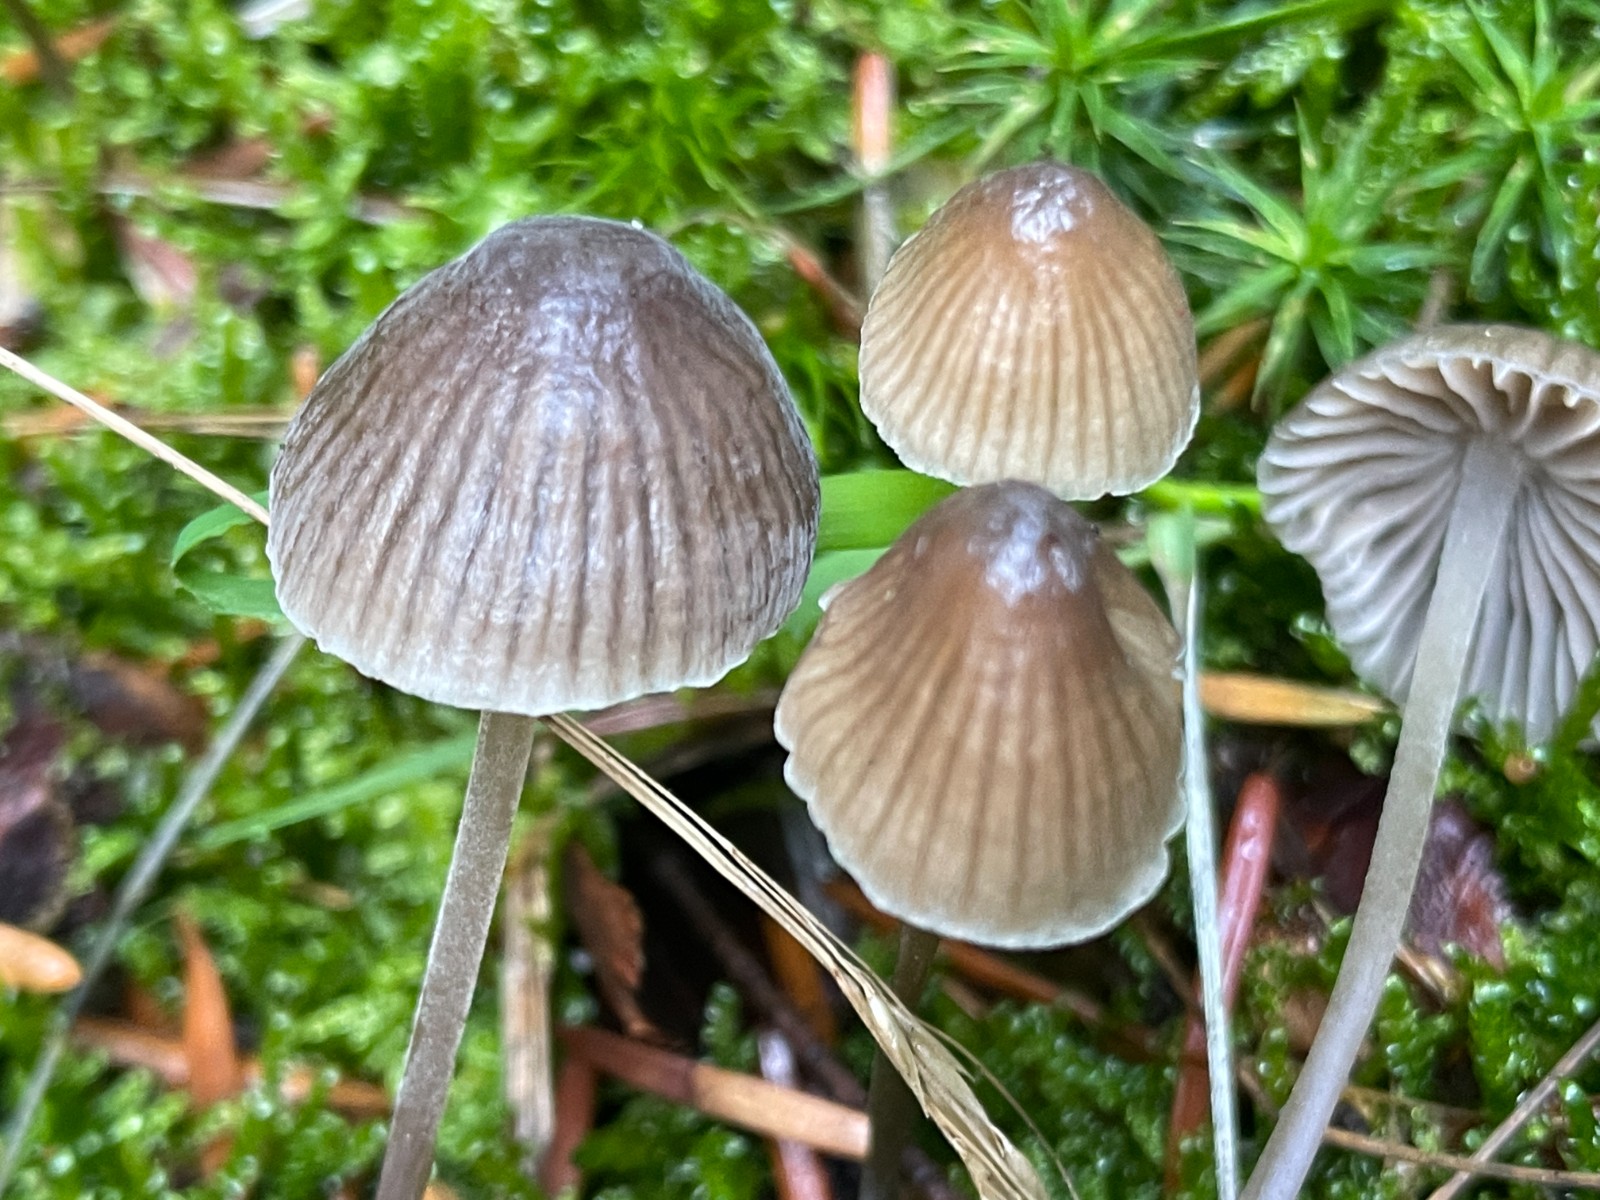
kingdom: Fungi
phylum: Basidiomycota
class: Agaricomycetes
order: Agaricales
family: Mycenaceae
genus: Mycena
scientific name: Mycena leptocephala
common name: klor-huesvamp
